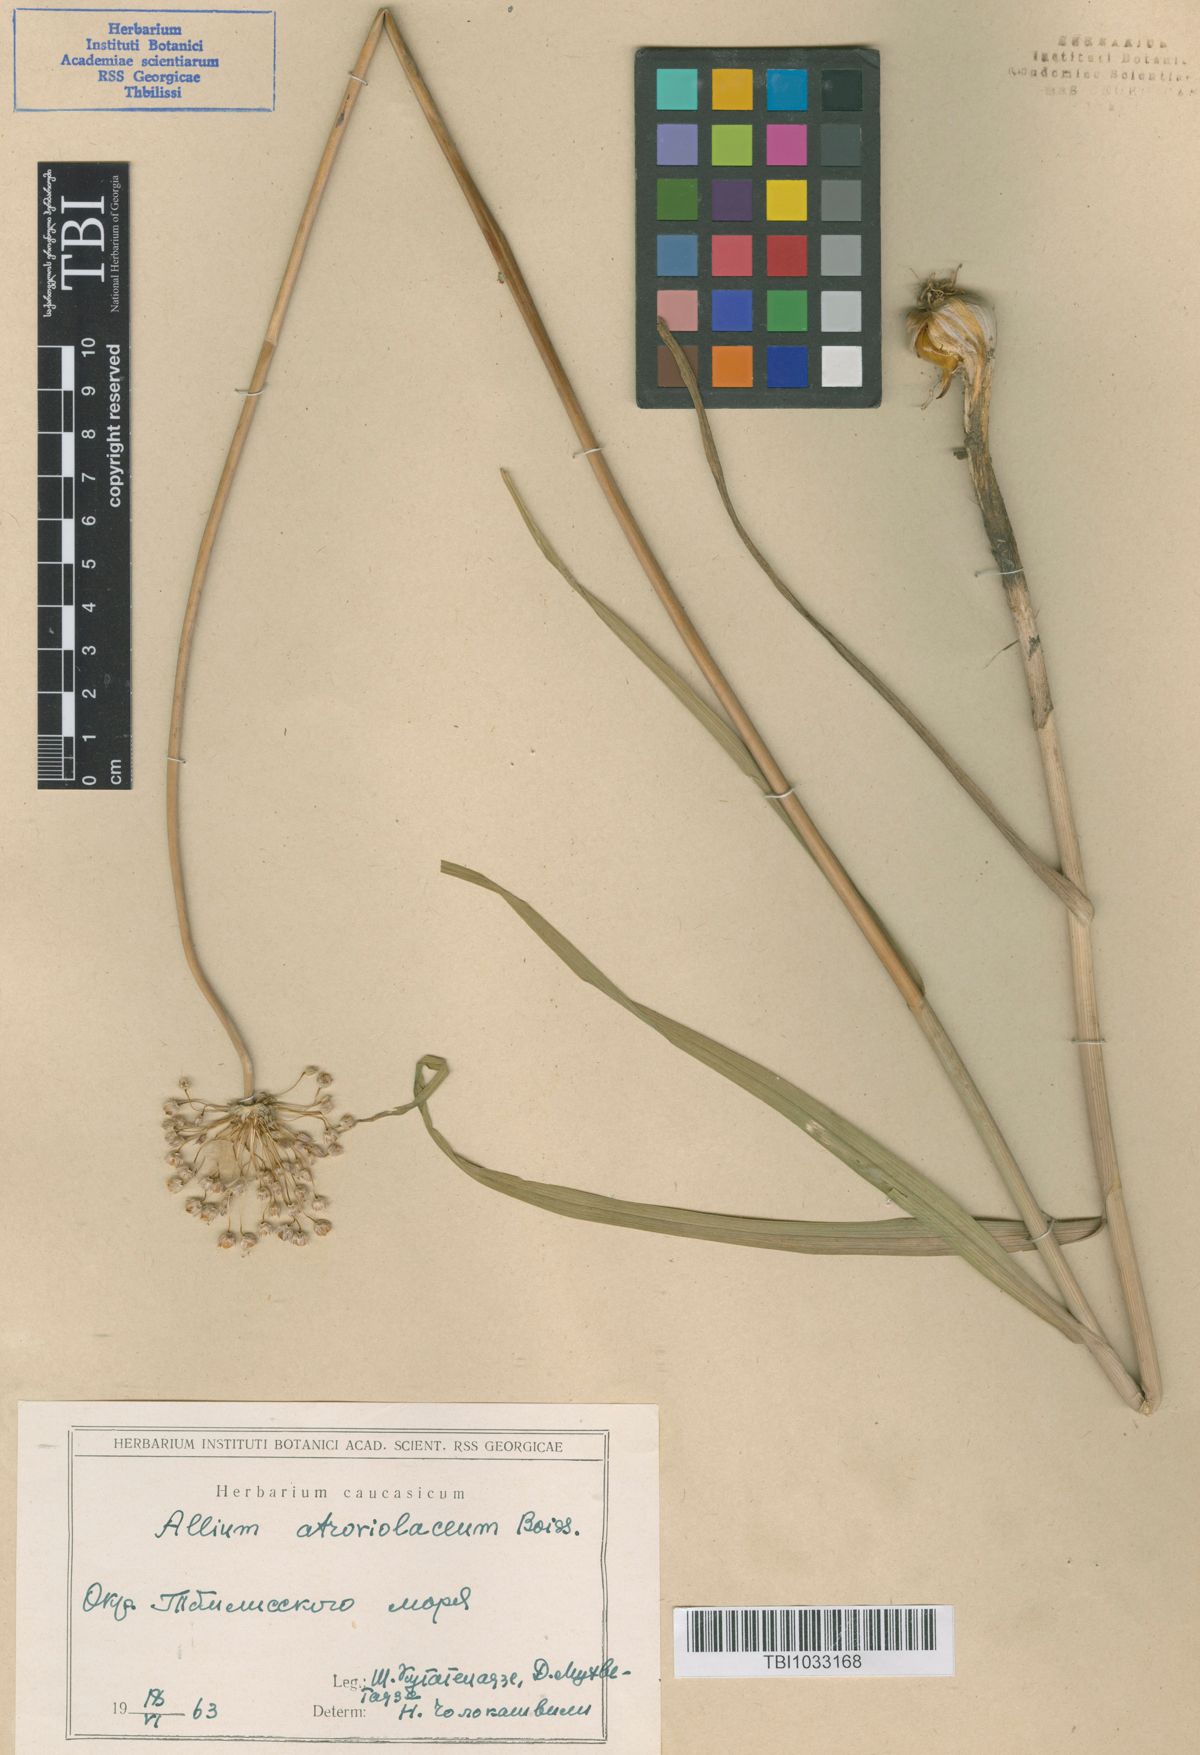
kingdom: Plantae
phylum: Tracheophyta
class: Liliopsida
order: Asparagales
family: Amaryllidaceae
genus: Allium
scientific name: Allium atroviolaceum
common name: Broadleaf wild leek
